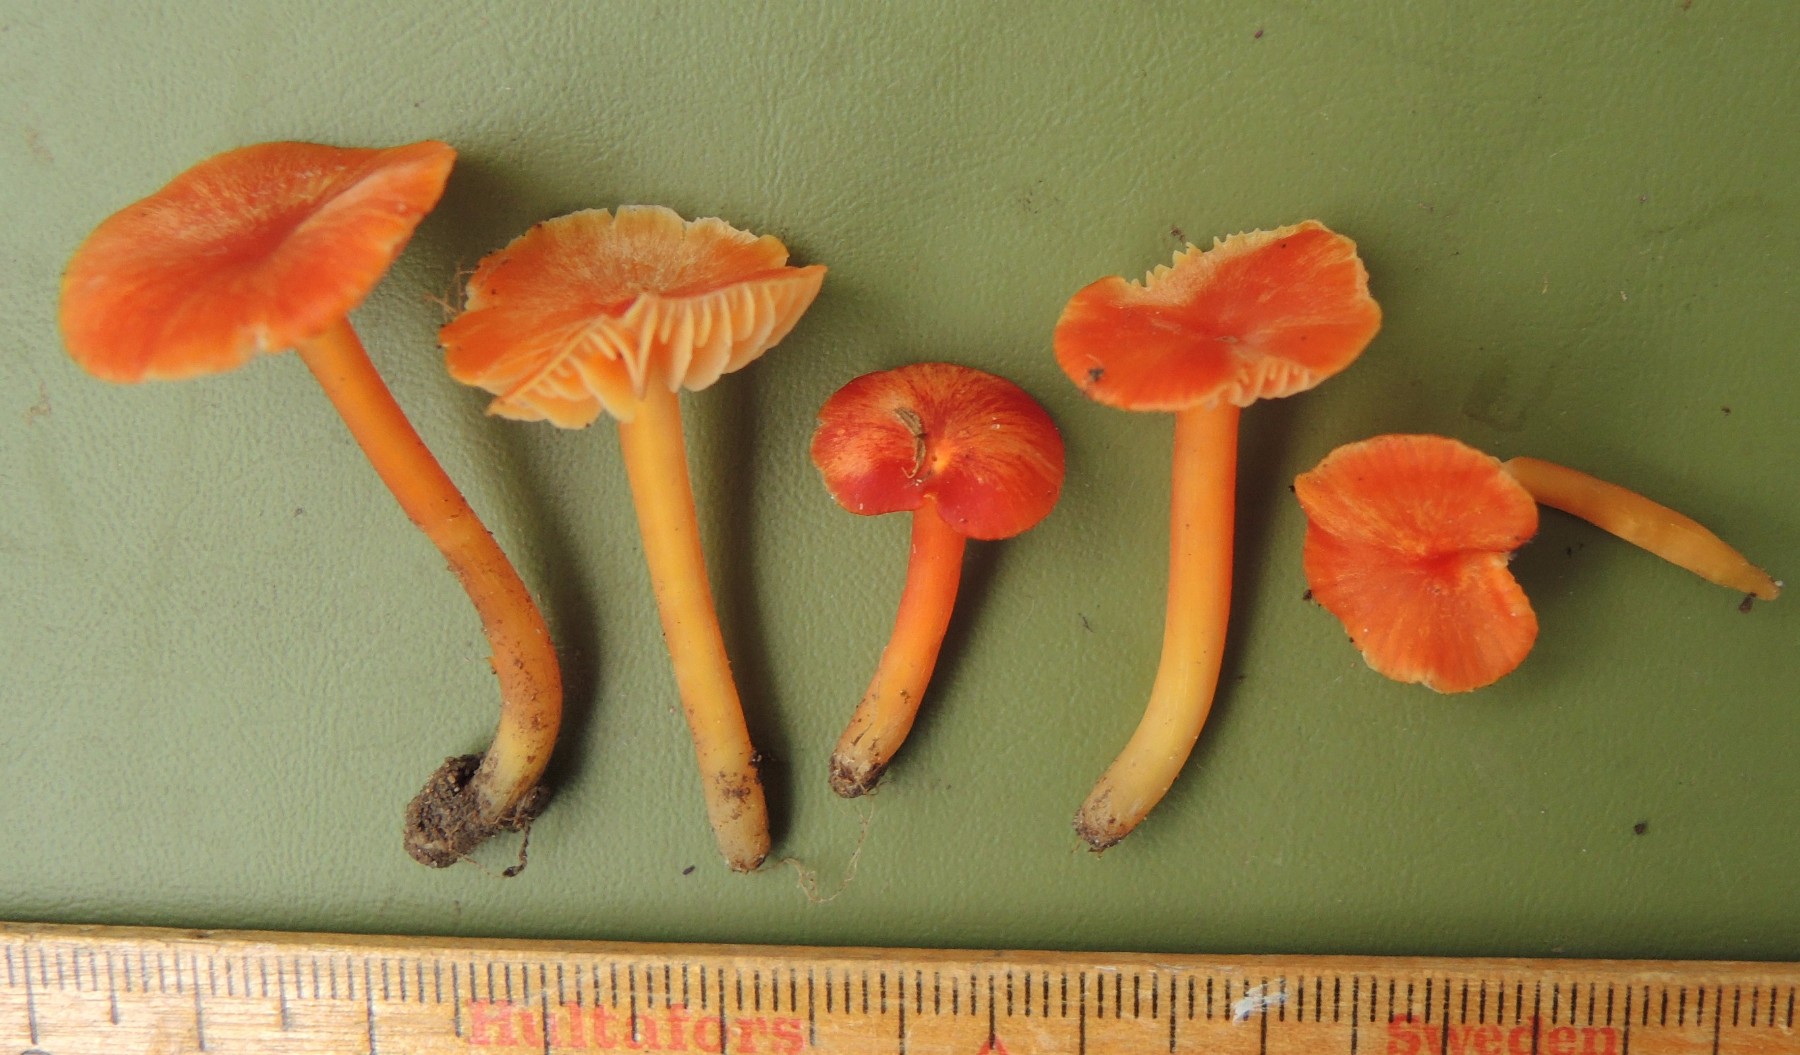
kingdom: Fungi
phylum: Basidiomycota
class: Agaricomycetes
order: Agaricales
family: Hygrophoraceae
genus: Hygrocybe
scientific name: Hygrocybe subpapillata
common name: papil-vokshat
